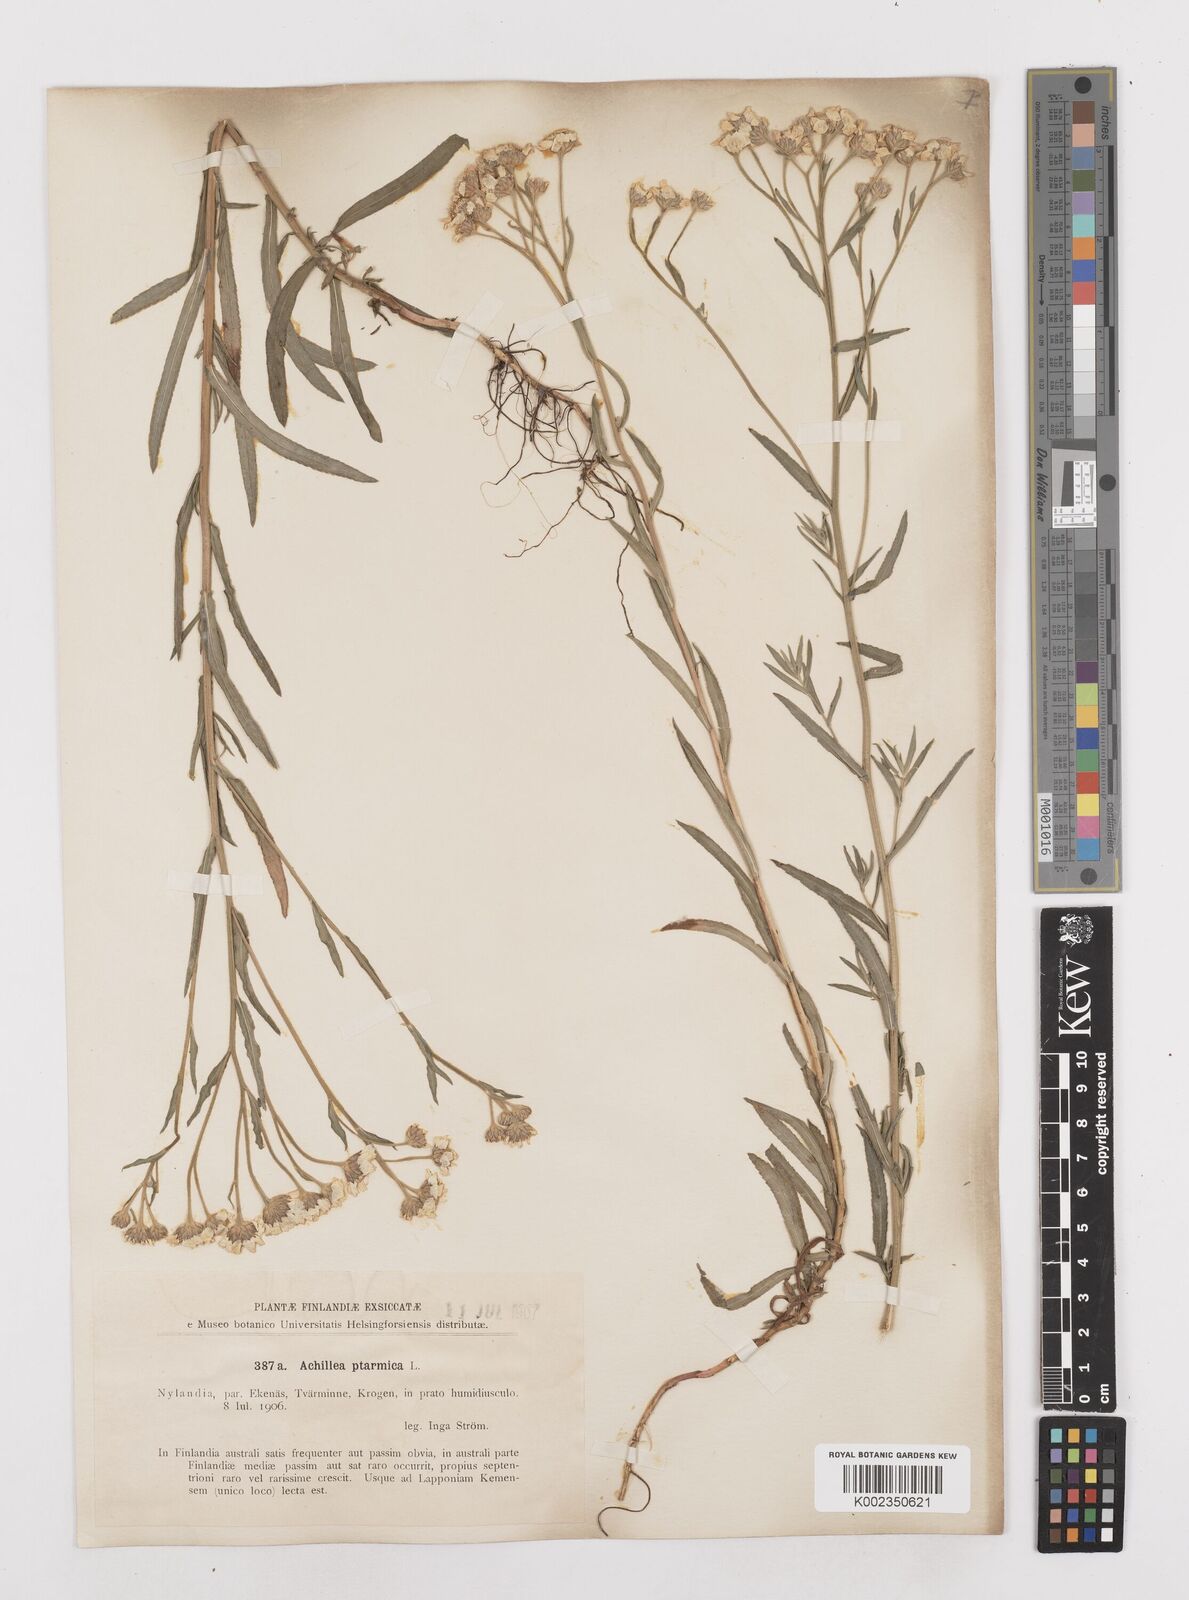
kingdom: Plantae
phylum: Tracheophyta
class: Magnoliopsida
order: Asterales
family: Asteraceae
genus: Achillea
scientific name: Achillea ptarmica
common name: Sneezeweed
